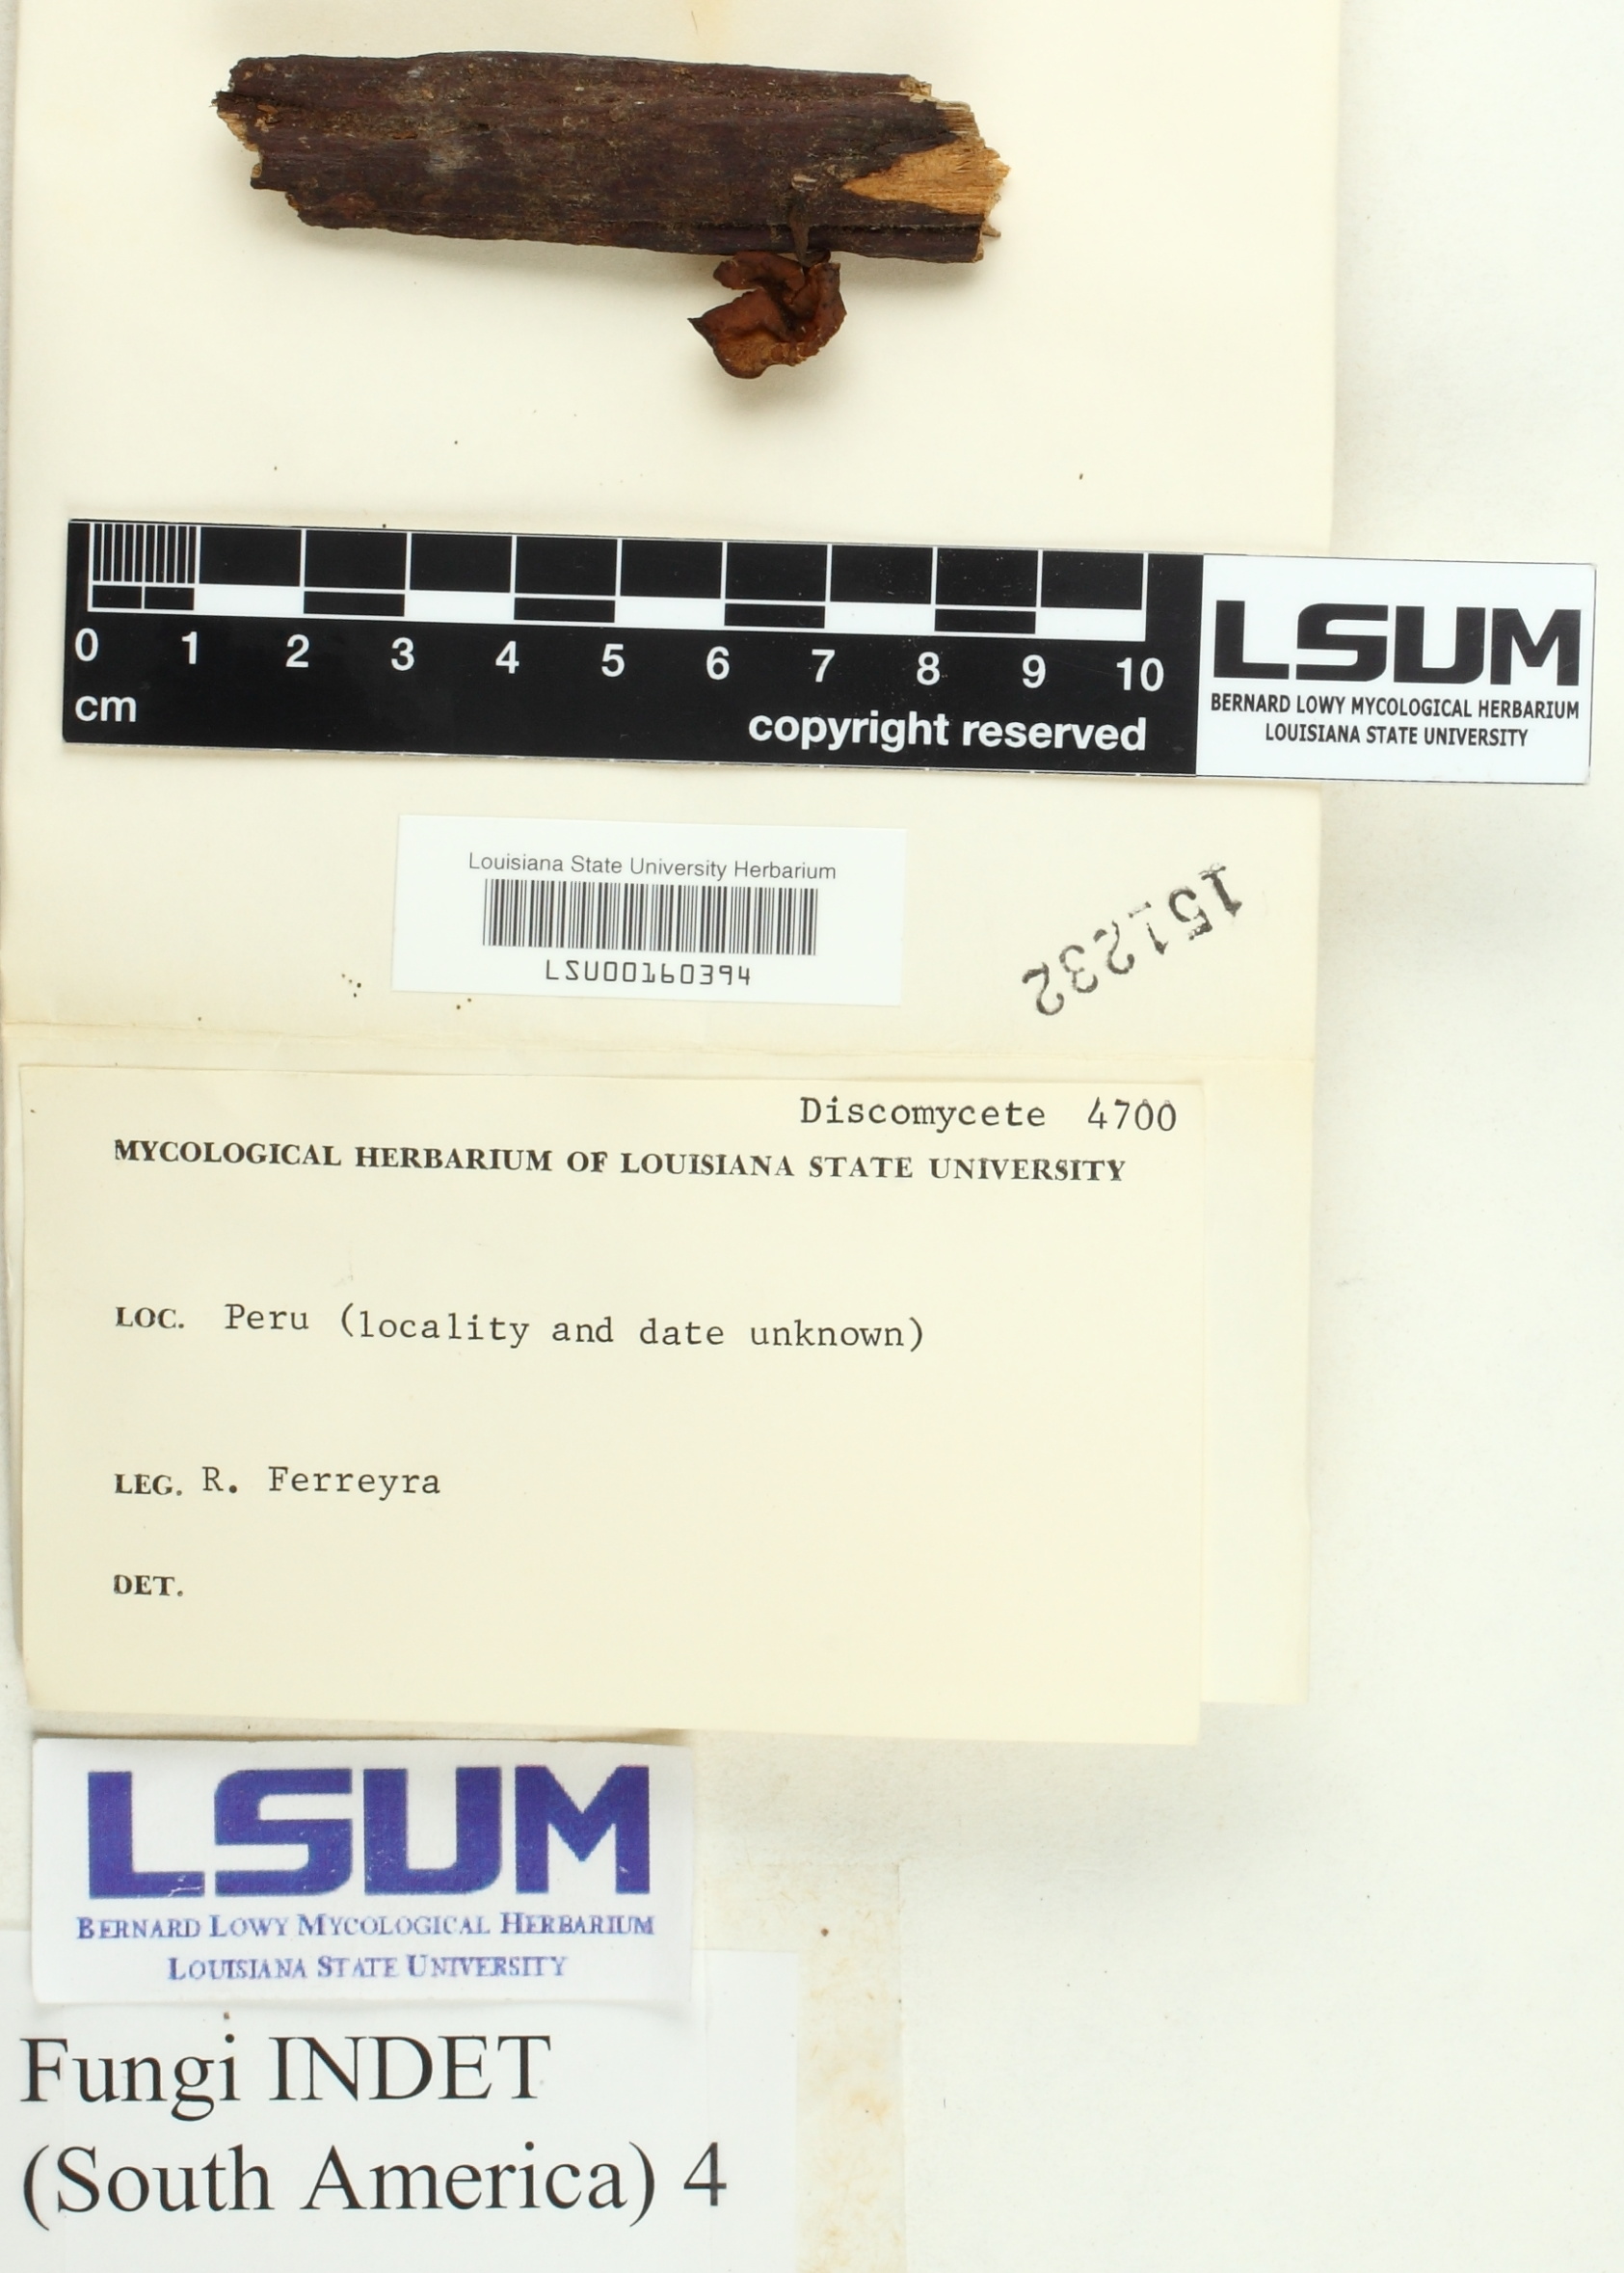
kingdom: Fungi
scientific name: Fungi
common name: Fungi
